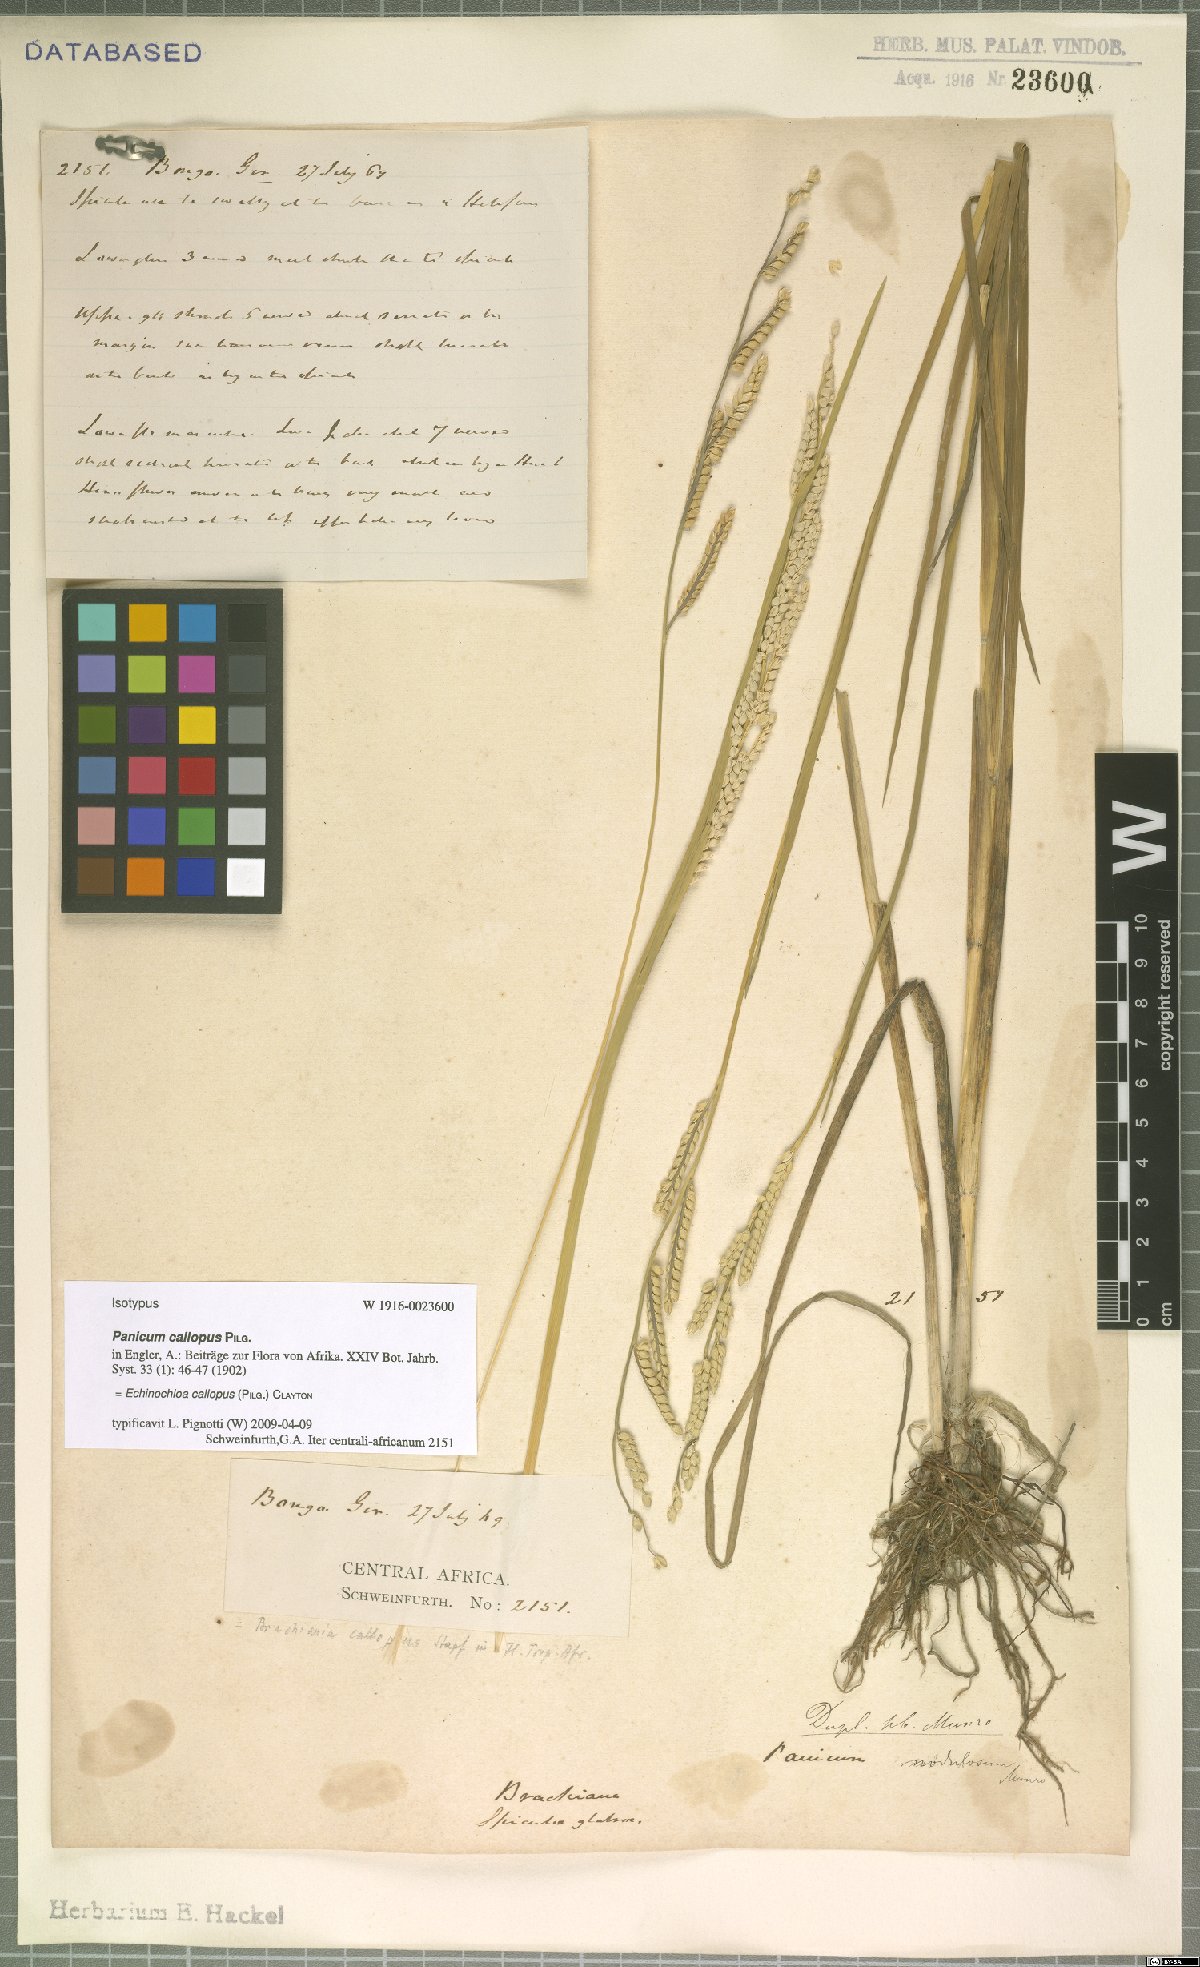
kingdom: Plantae
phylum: Tracheophyta
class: Liliopsida
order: Poales
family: Poaceae
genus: Echinochloa
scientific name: Echinochloa callopus
